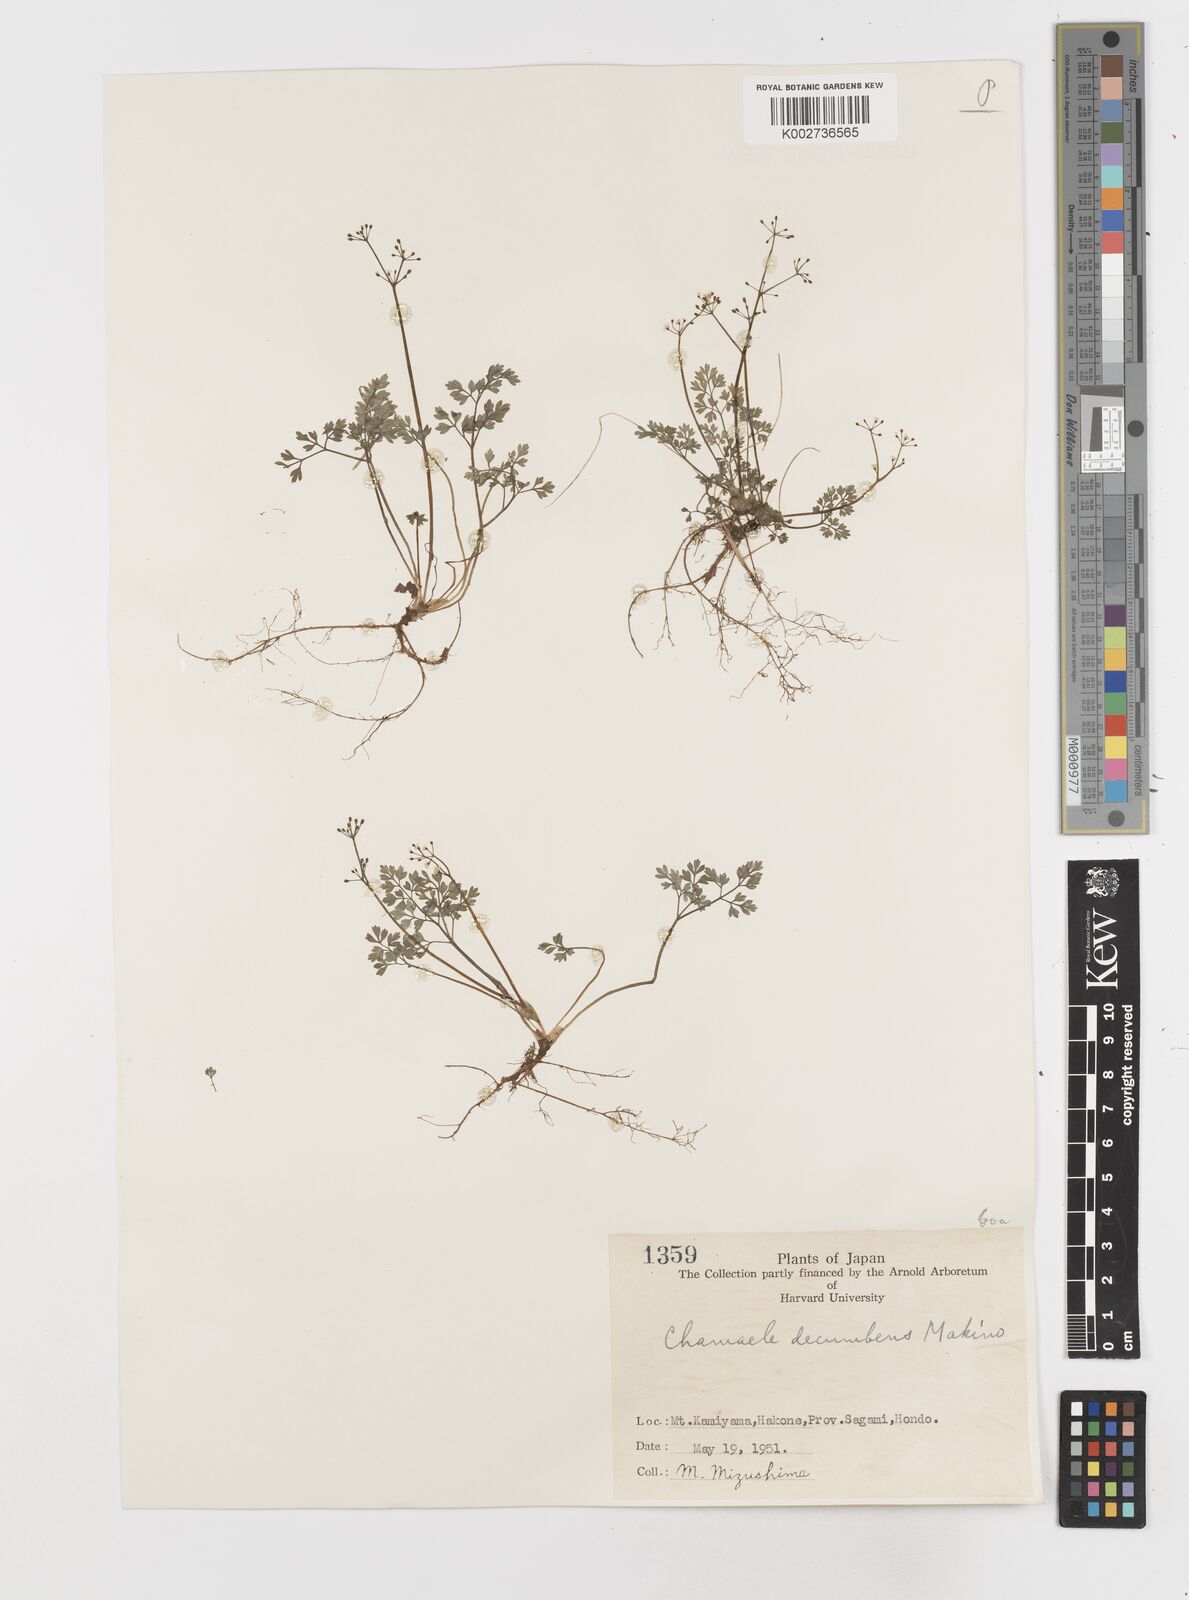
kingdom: Plantae
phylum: Tracheophyta
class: Magnoliopsida
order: Apiales
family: Apiaceae
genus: Aegopodium
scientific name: Aegopodium decumbens
